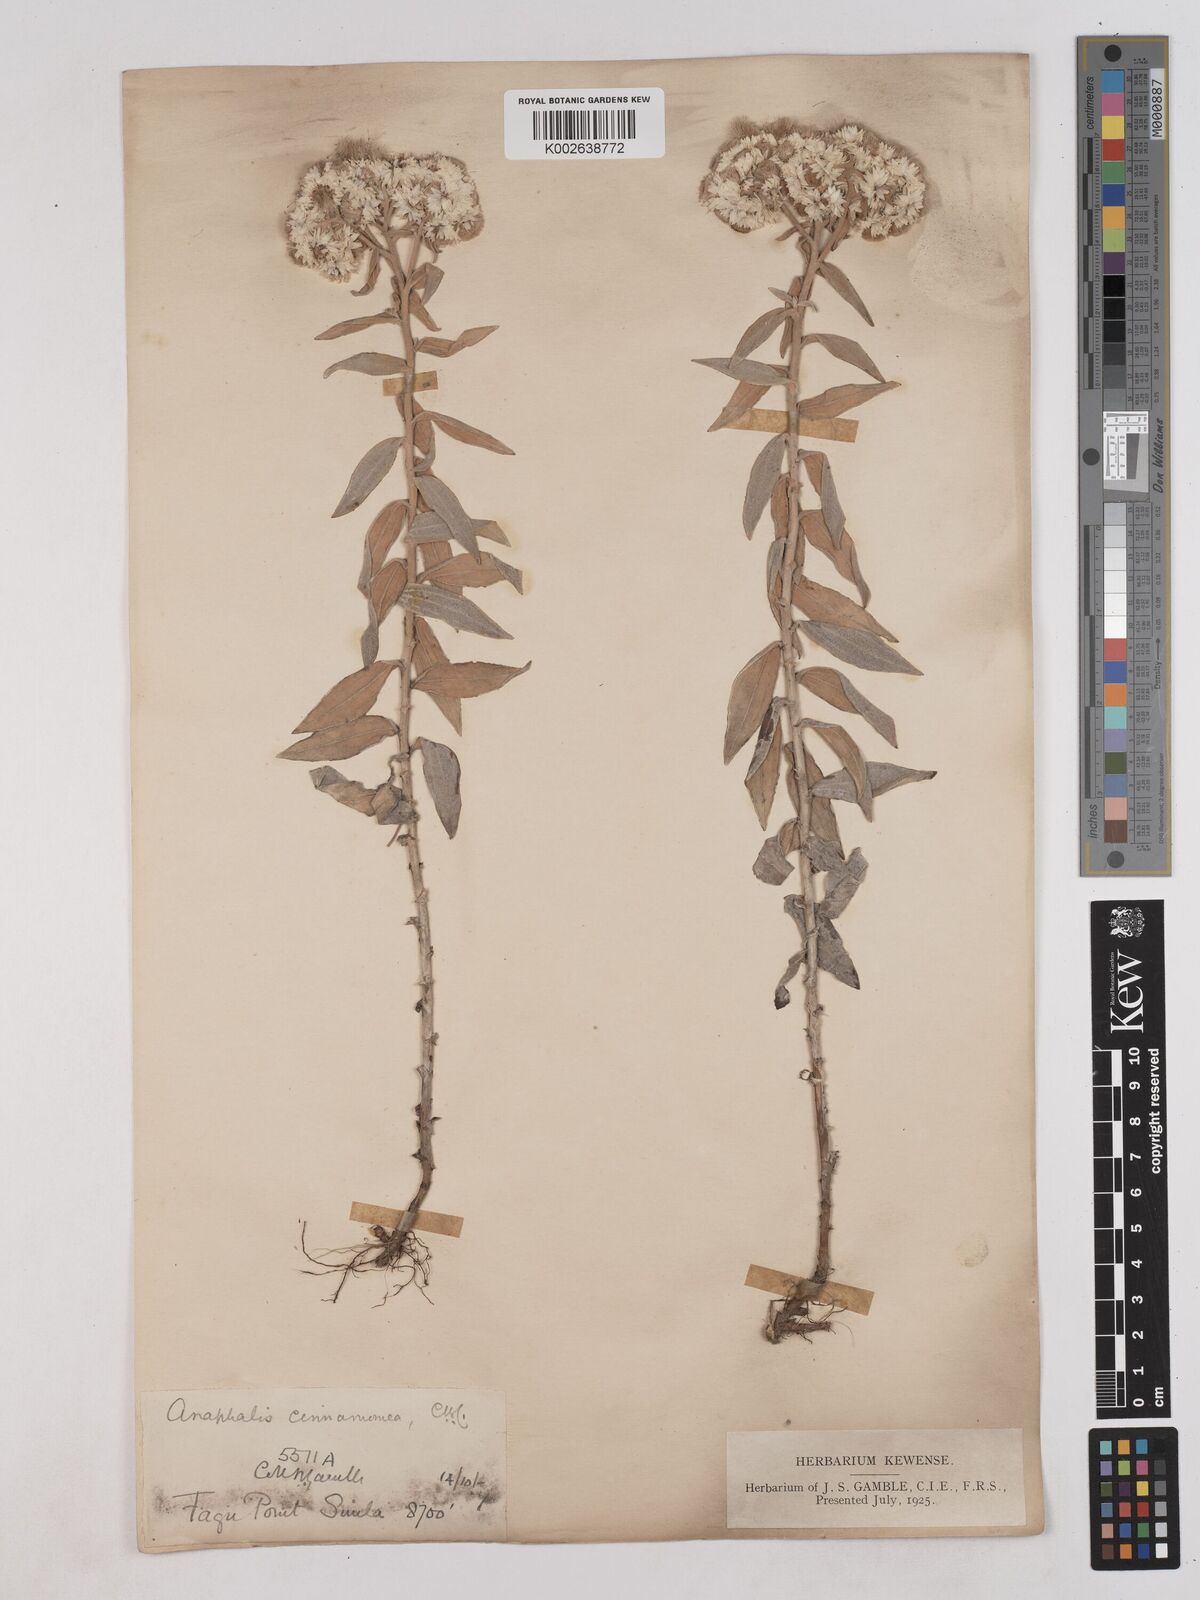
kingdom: Plantae
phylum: Tracheophyta
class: Magnoliopsida
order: Asterales
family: Asteraceae
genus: Anaphalis
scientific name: Anaphalis marcescens
